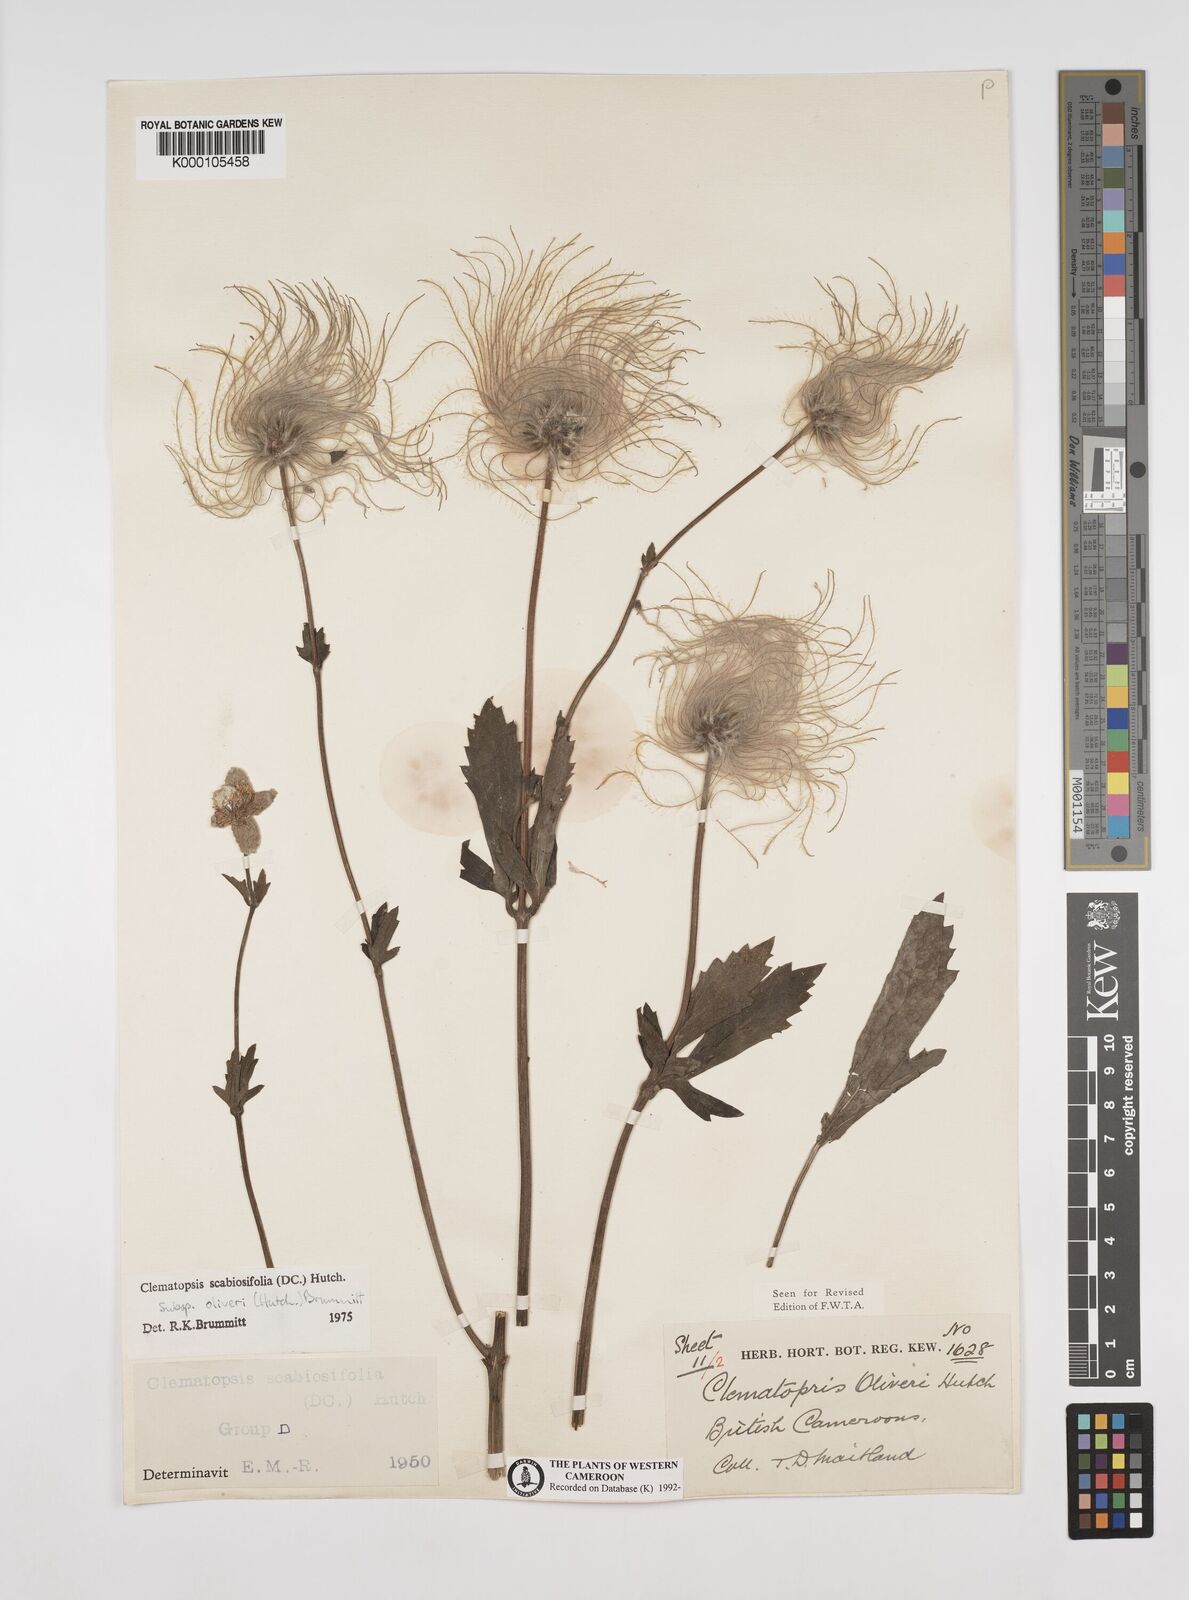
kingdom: Plantae
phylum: Tracheophyta
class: Magnoliopsida
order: Ranunculales
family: Ranunculaceae
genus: Clematis
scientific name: Clematis villosa
